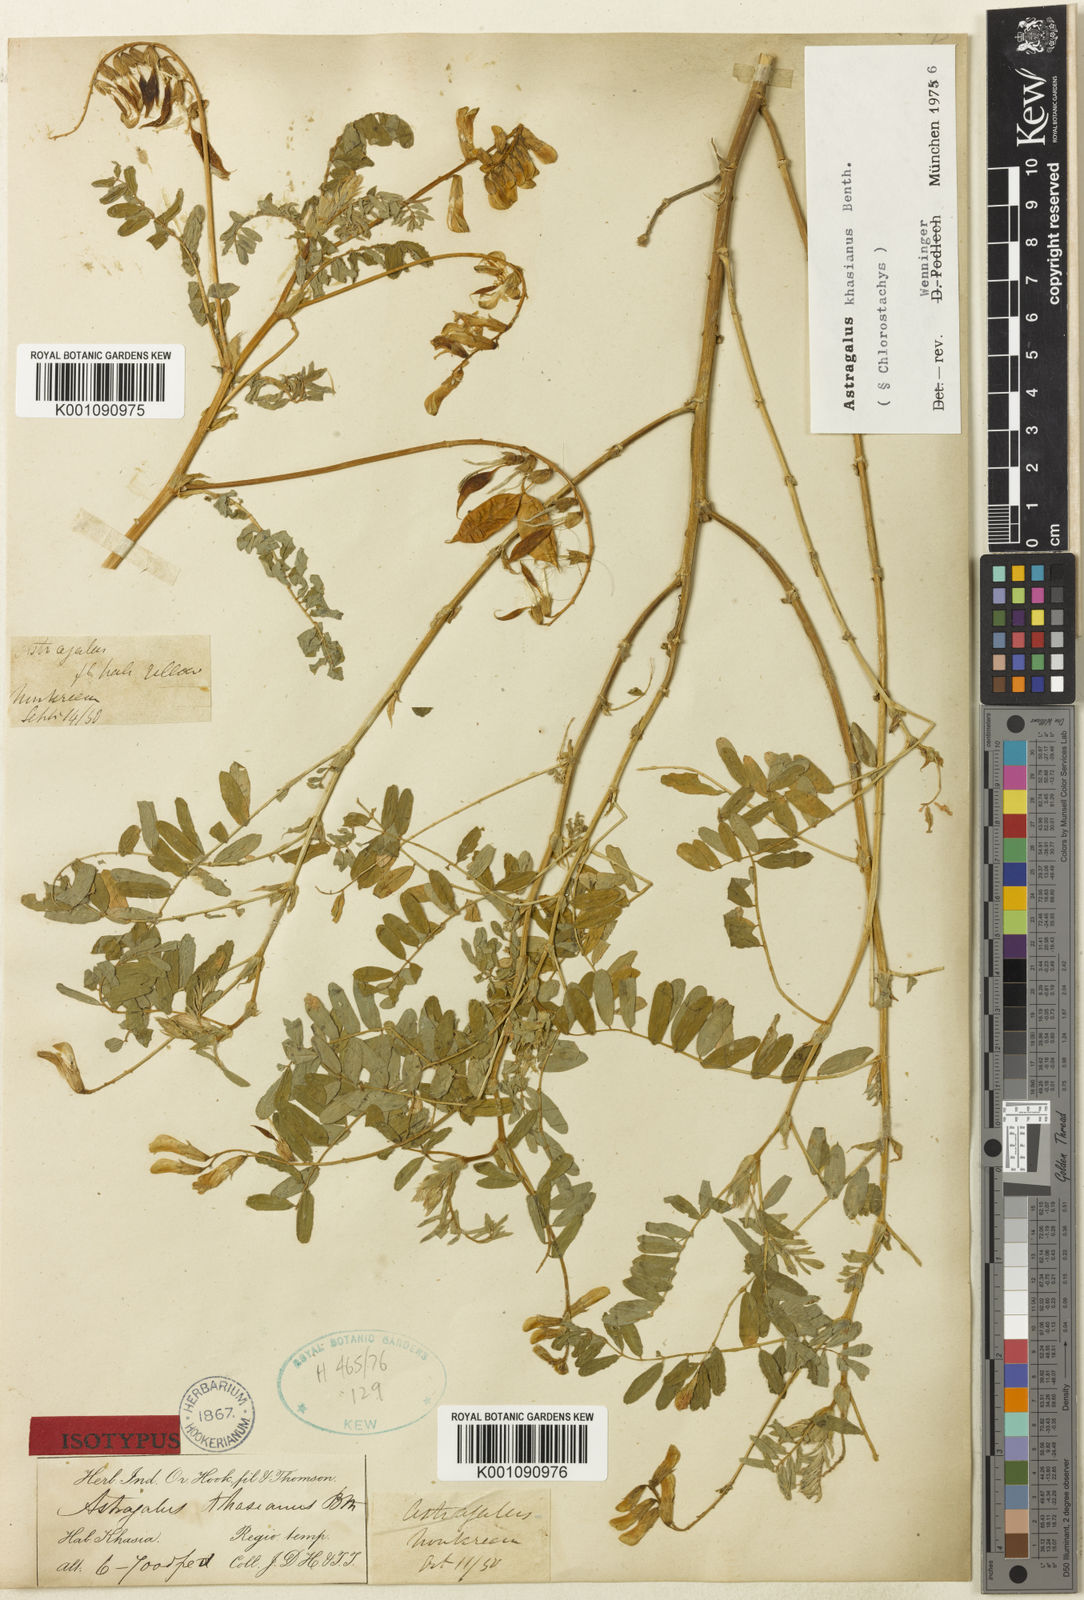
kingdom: Plantae
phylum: Tracheophyta
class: Magnoliopsida
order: Fabales
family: Fabaceae
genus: Astragalus
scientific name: Astragalus
